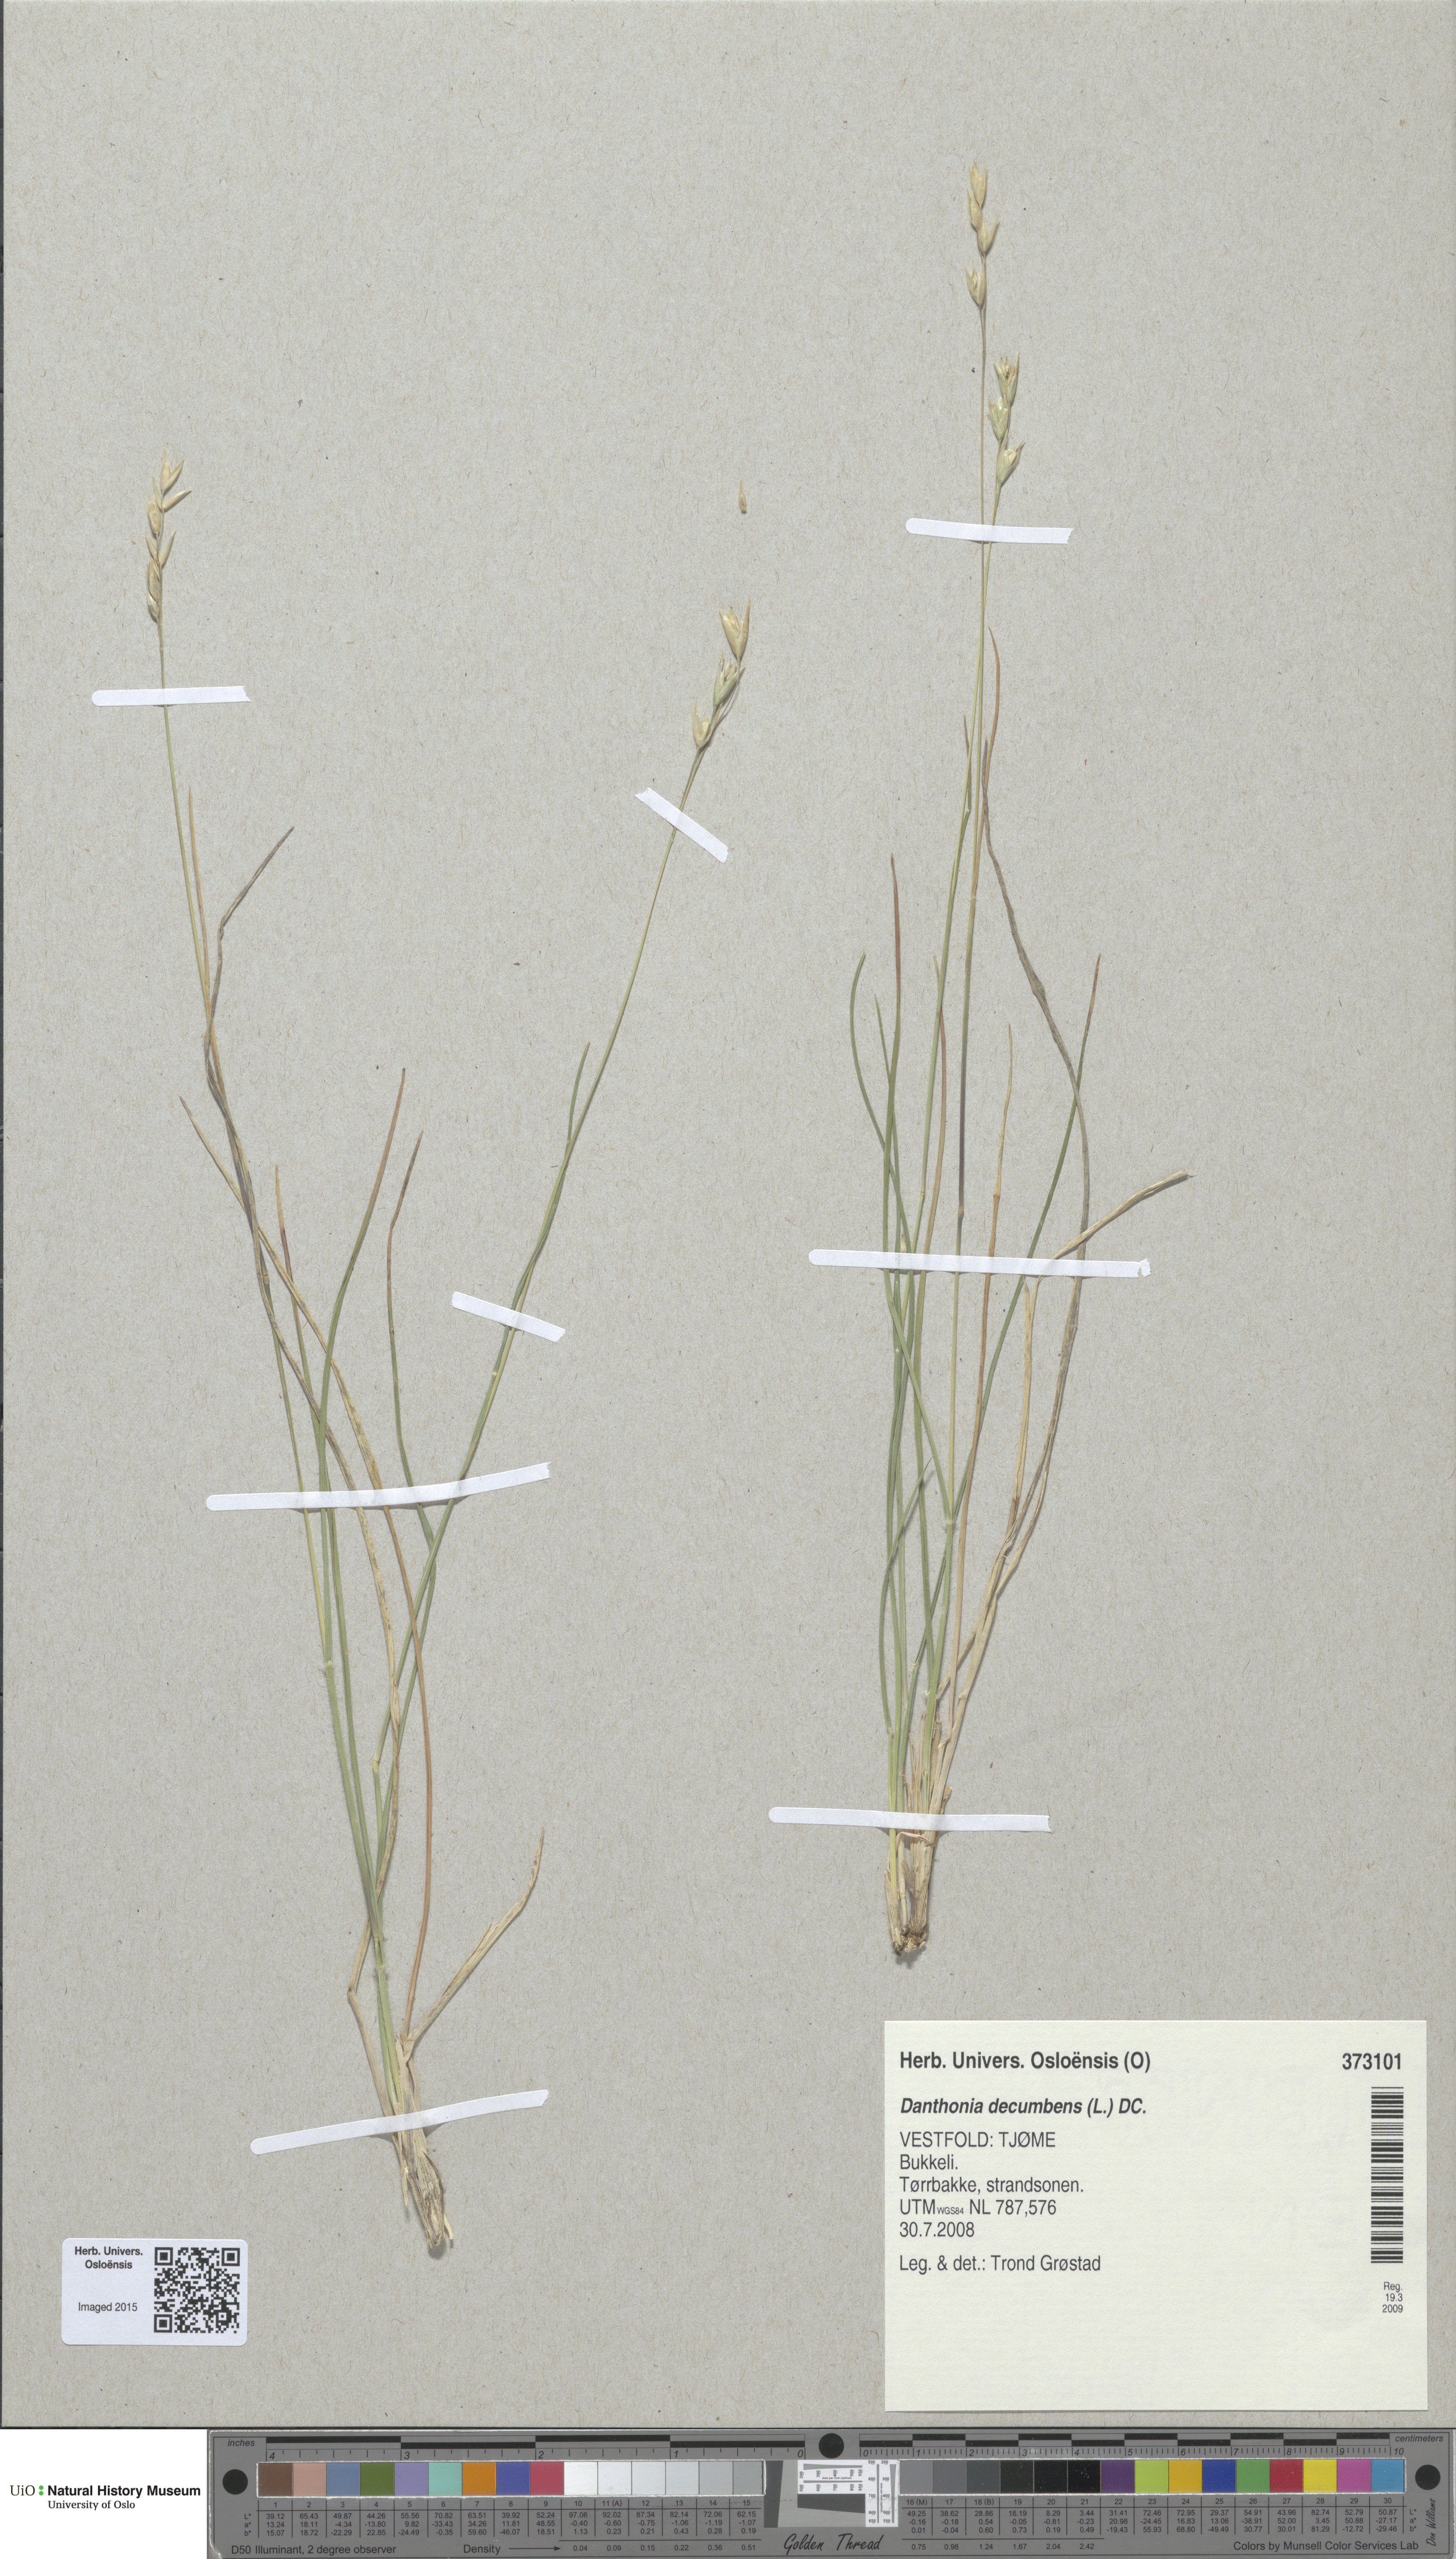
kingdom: Plantae
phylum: Tracheophyta
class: Liliopsida
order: Poales
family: Poaceae
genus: Danthonia
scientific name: Danthonia decumbens
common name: Common heathgrass
